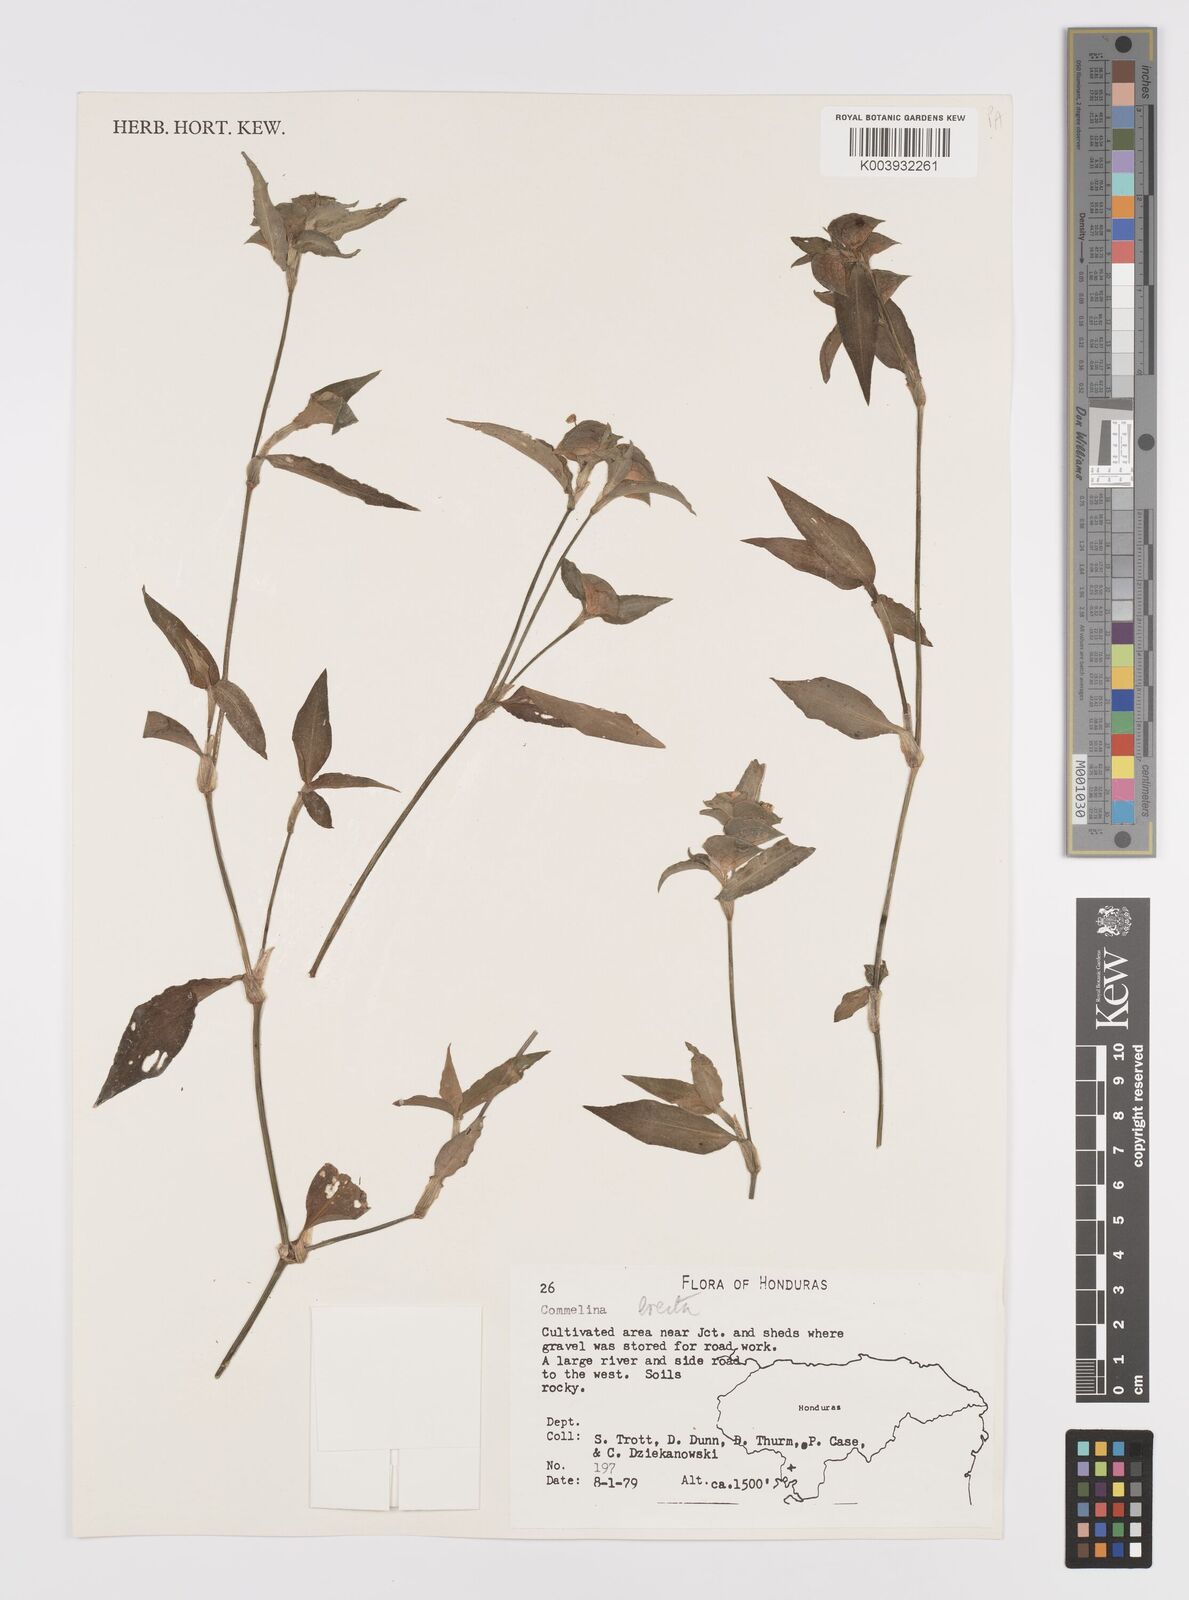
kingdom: Plantae
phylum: Tracheophyta
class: Liliopsida
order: Commelinales
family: Commelinaceae
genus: Commelina
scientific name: Commelina erecta
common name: Blousel blommetjie
